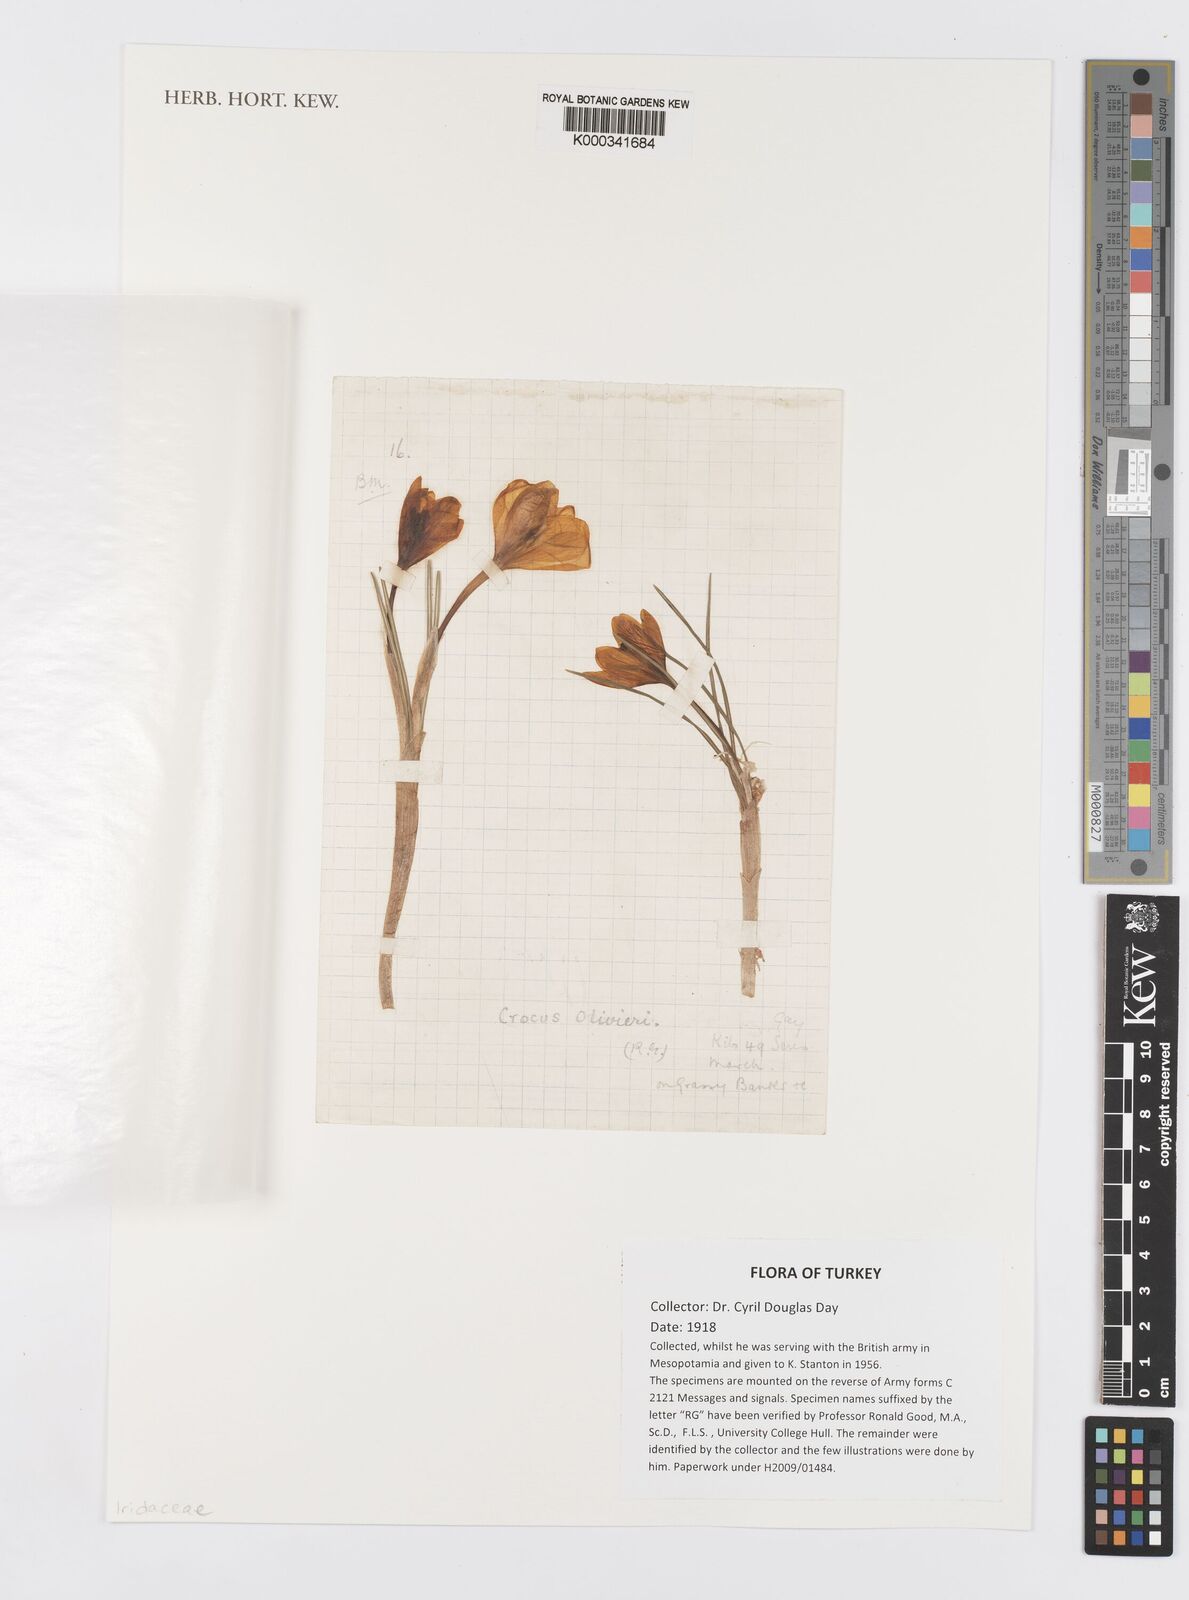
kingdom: Plantae
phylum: Tracheophyta
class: Liliopsida
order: Asparagales
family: Iridaceae
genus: Crocus
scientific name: Crocus olivieri
